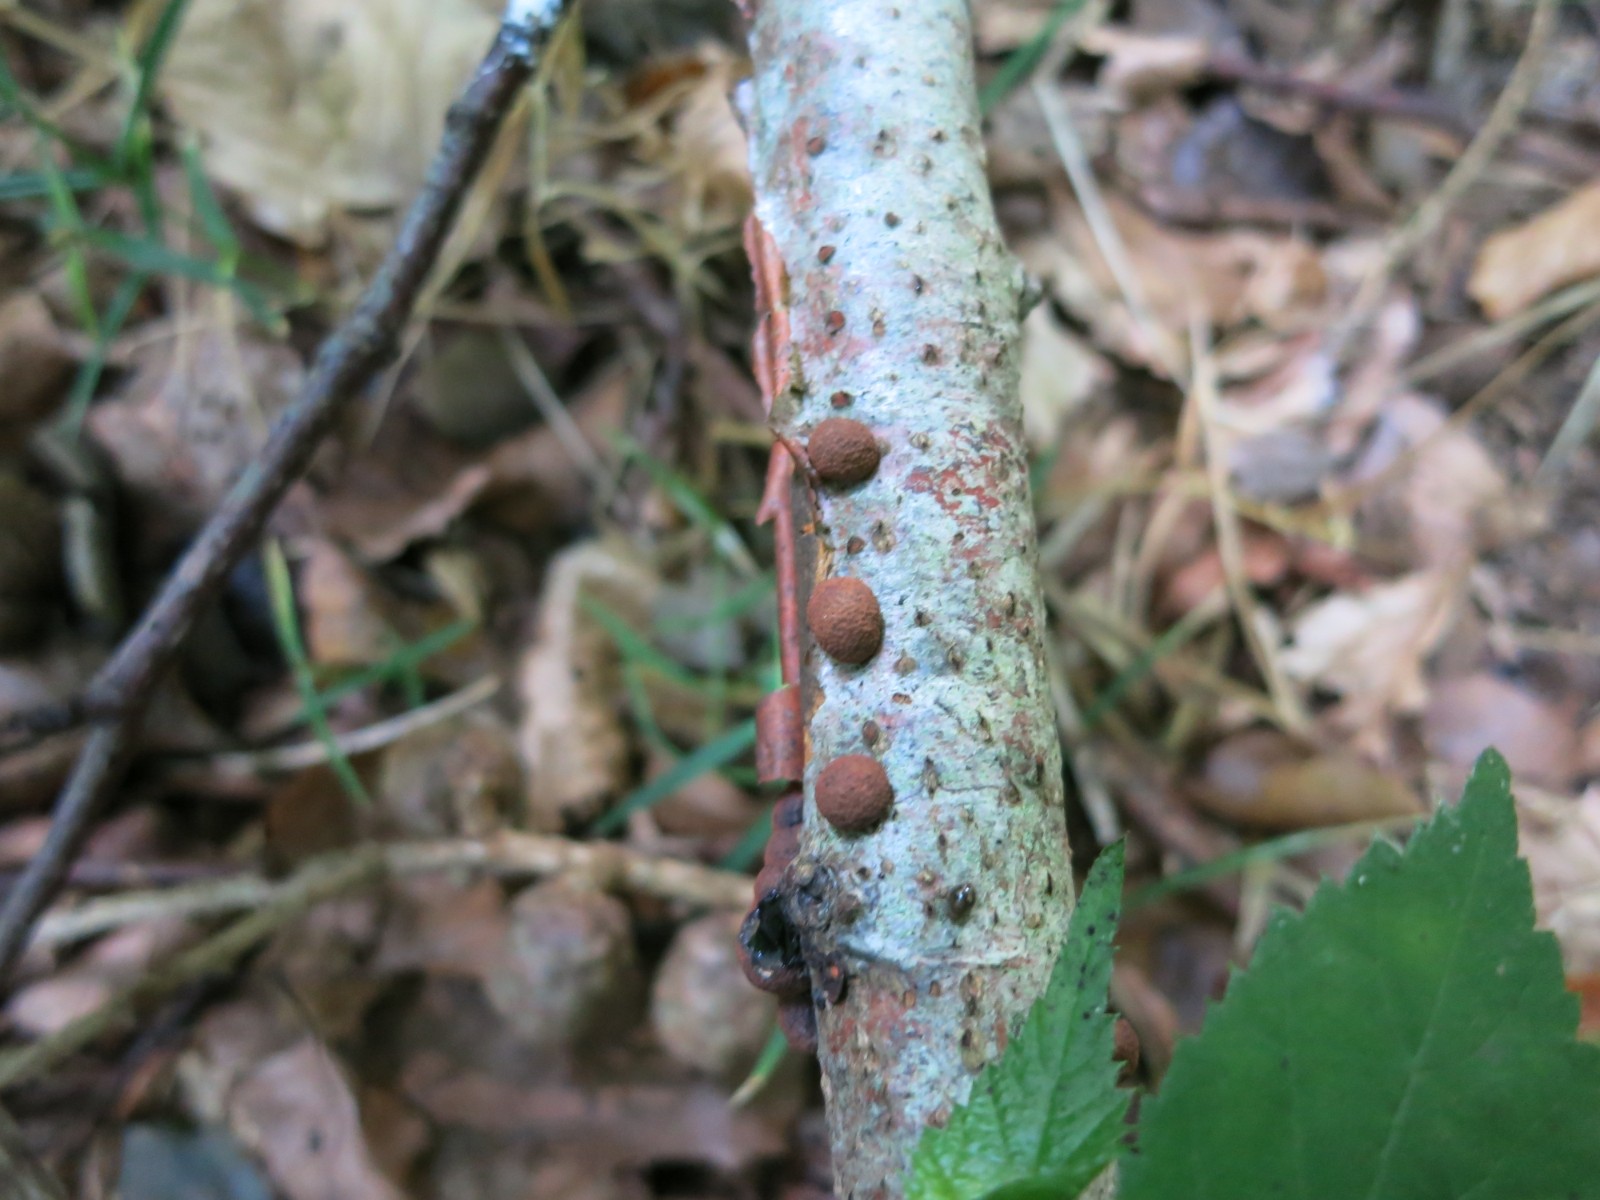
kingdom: Fungi
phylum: Ascomycota
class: Sordariomycetes
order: Xylariales
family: Hypoxylaceae
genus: Hypoxylon
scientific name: Hypoxylon fragiforme
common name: kuljordbær
